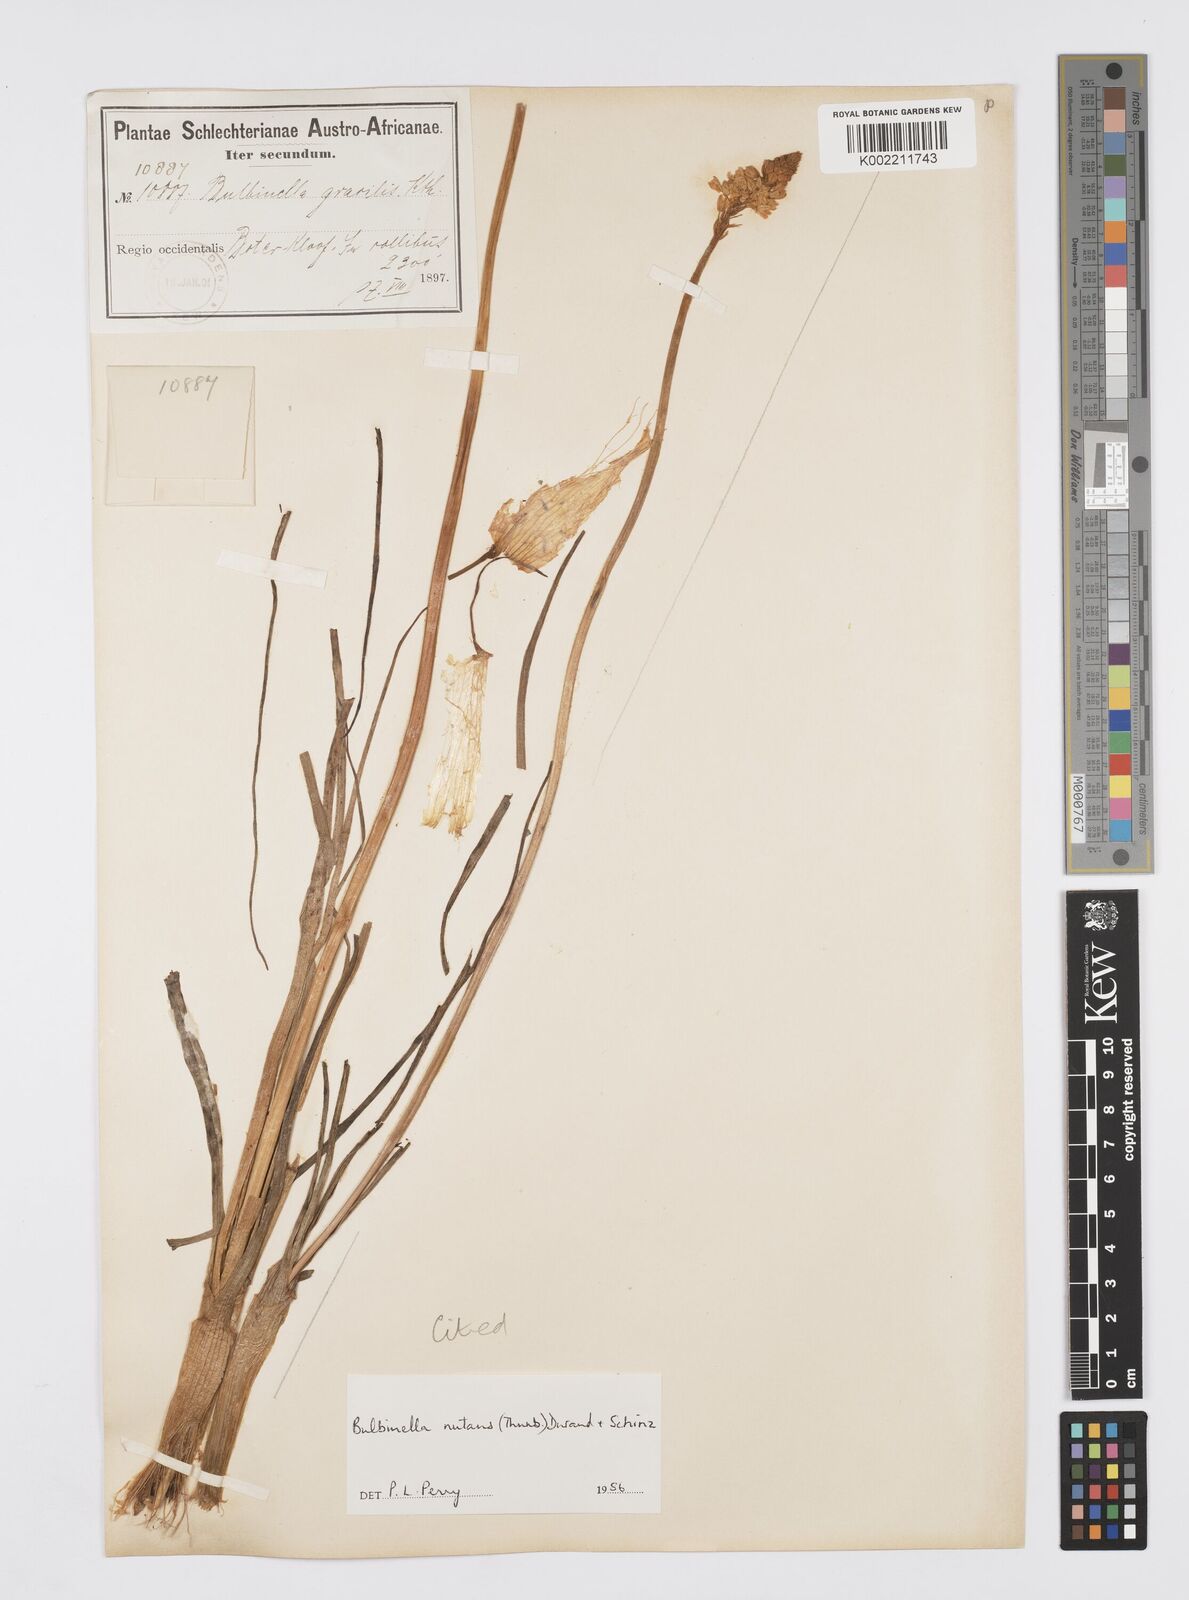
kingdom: Plantae
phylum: Tracheophyta
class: Liliopsida
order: Asparagales
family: Asphodelaceae
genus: Bulbinella
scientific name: Bulbinella nutans
